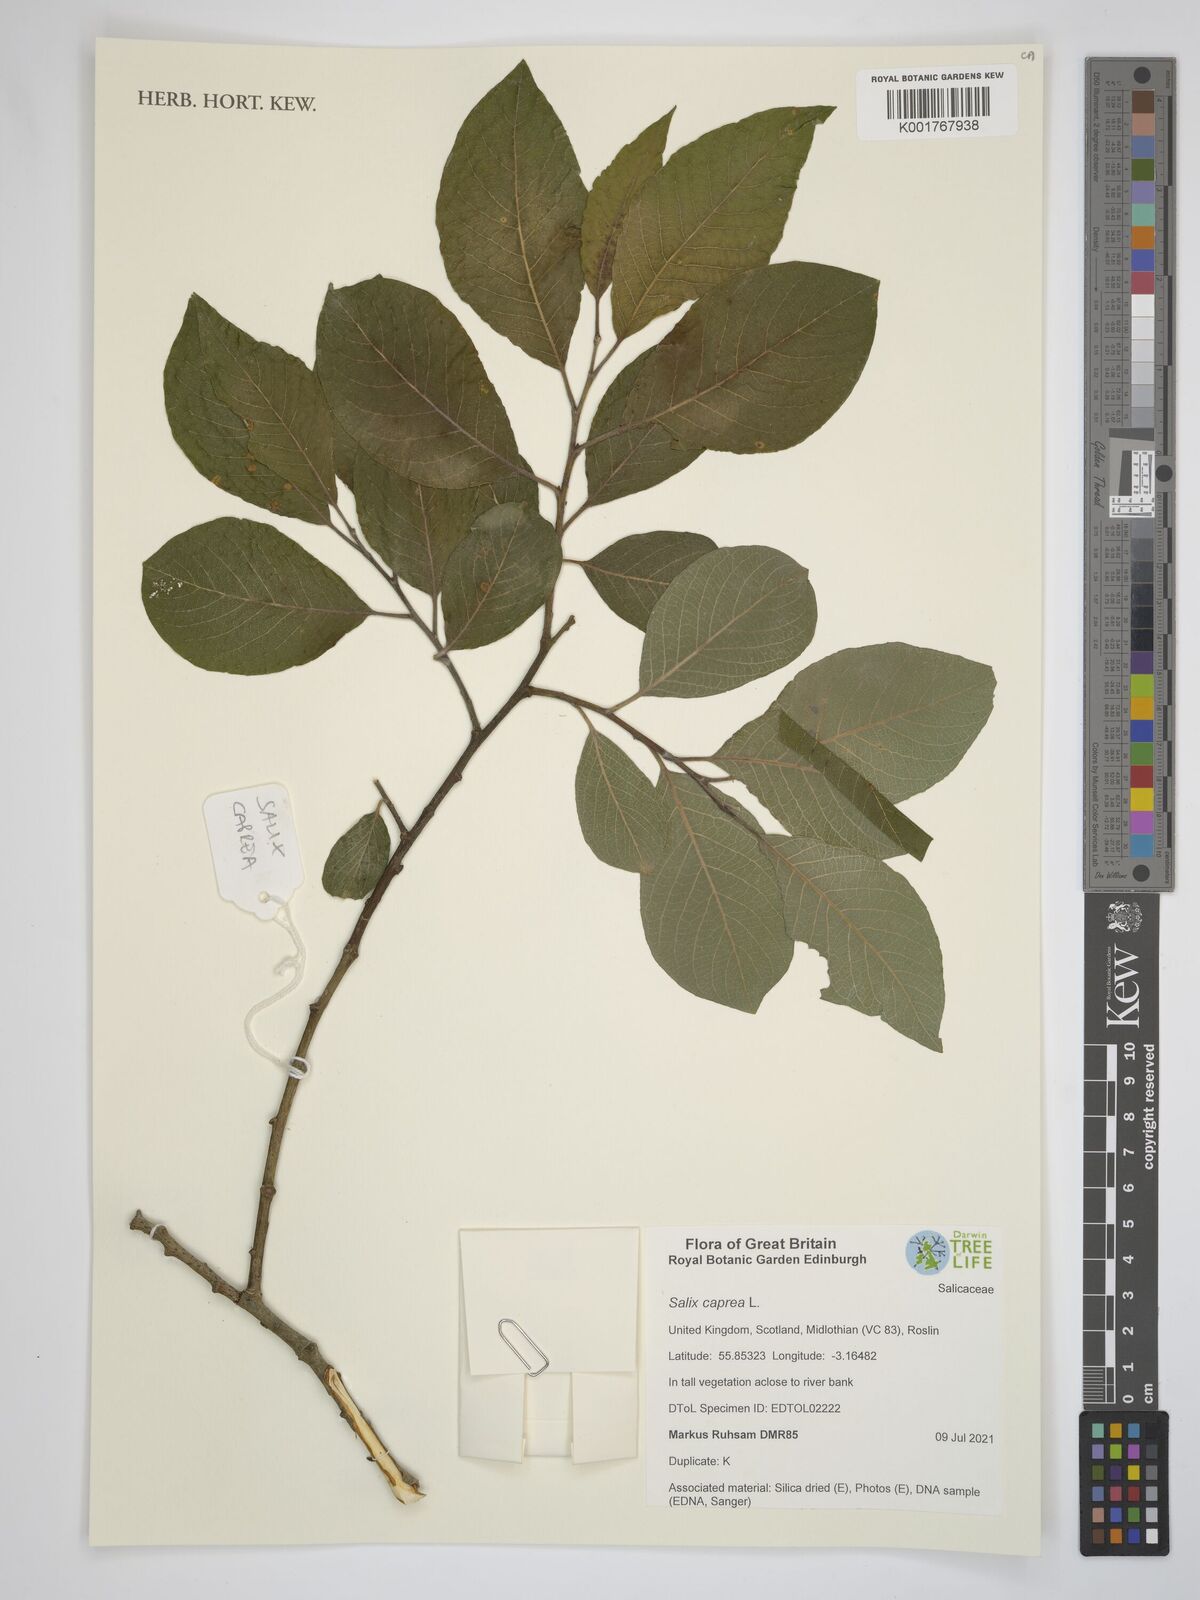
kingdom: Plantae
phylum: Tracheophyta
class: Magnoliopsida
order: Malpighiales
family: Salicaceae
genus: Salix
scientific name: Salix caprea
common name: Goat willow
